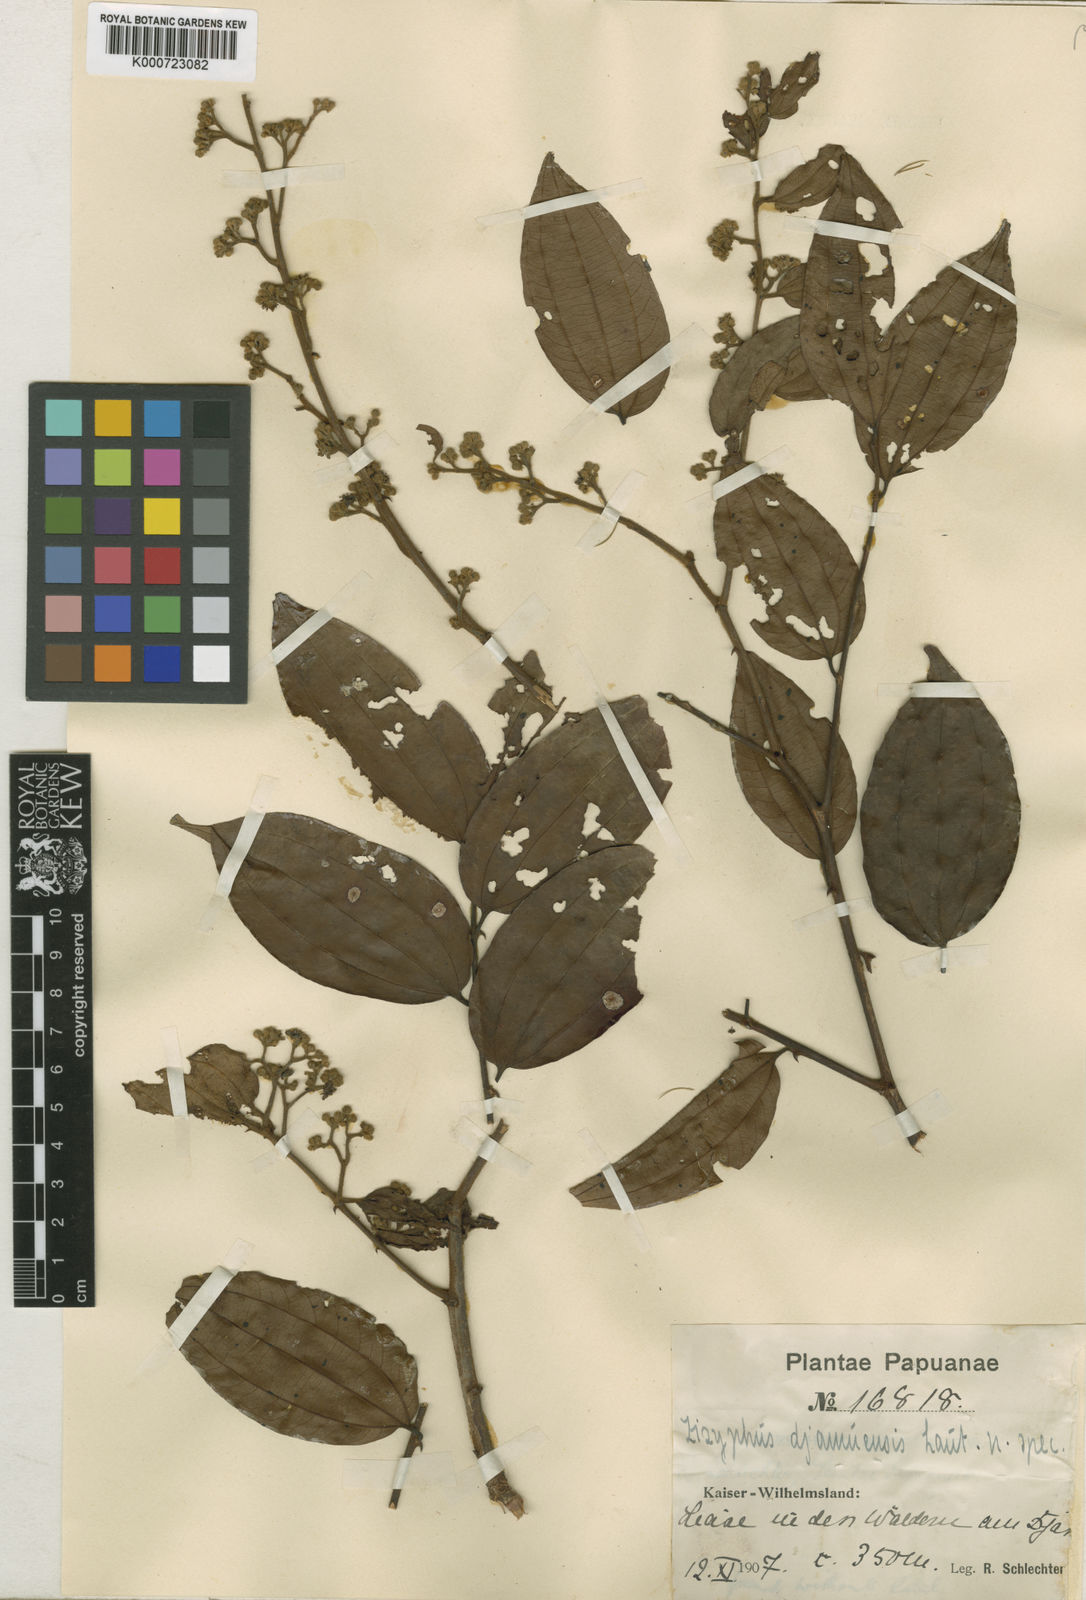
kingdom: Plantae
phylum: Tracheophyta
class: Magnoliopsida
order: Rosales
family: Rhamnaceae
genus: Ziziphus
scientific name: Ziziphus djamuensis
